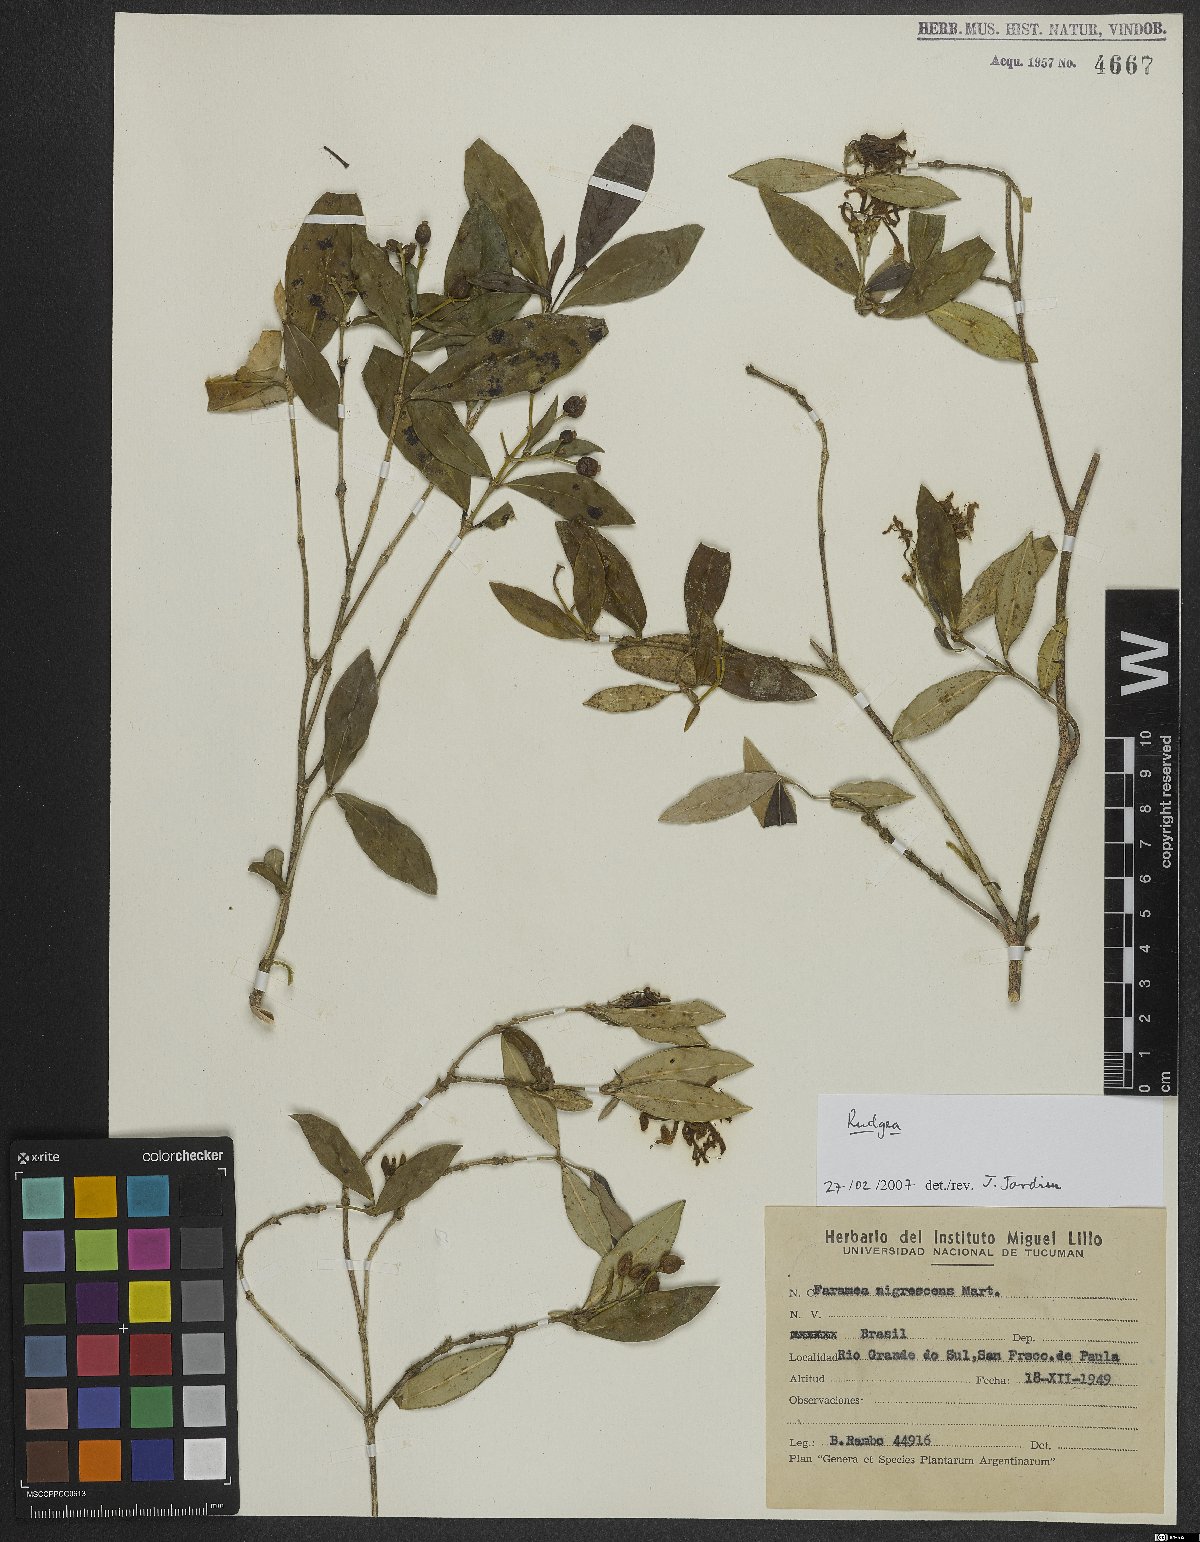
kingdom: Plantae
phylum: Tracheophyta
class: Magnoliopsida
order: Gentianales
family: Rubiaceae
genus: Rudgea
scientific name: Rudgea
